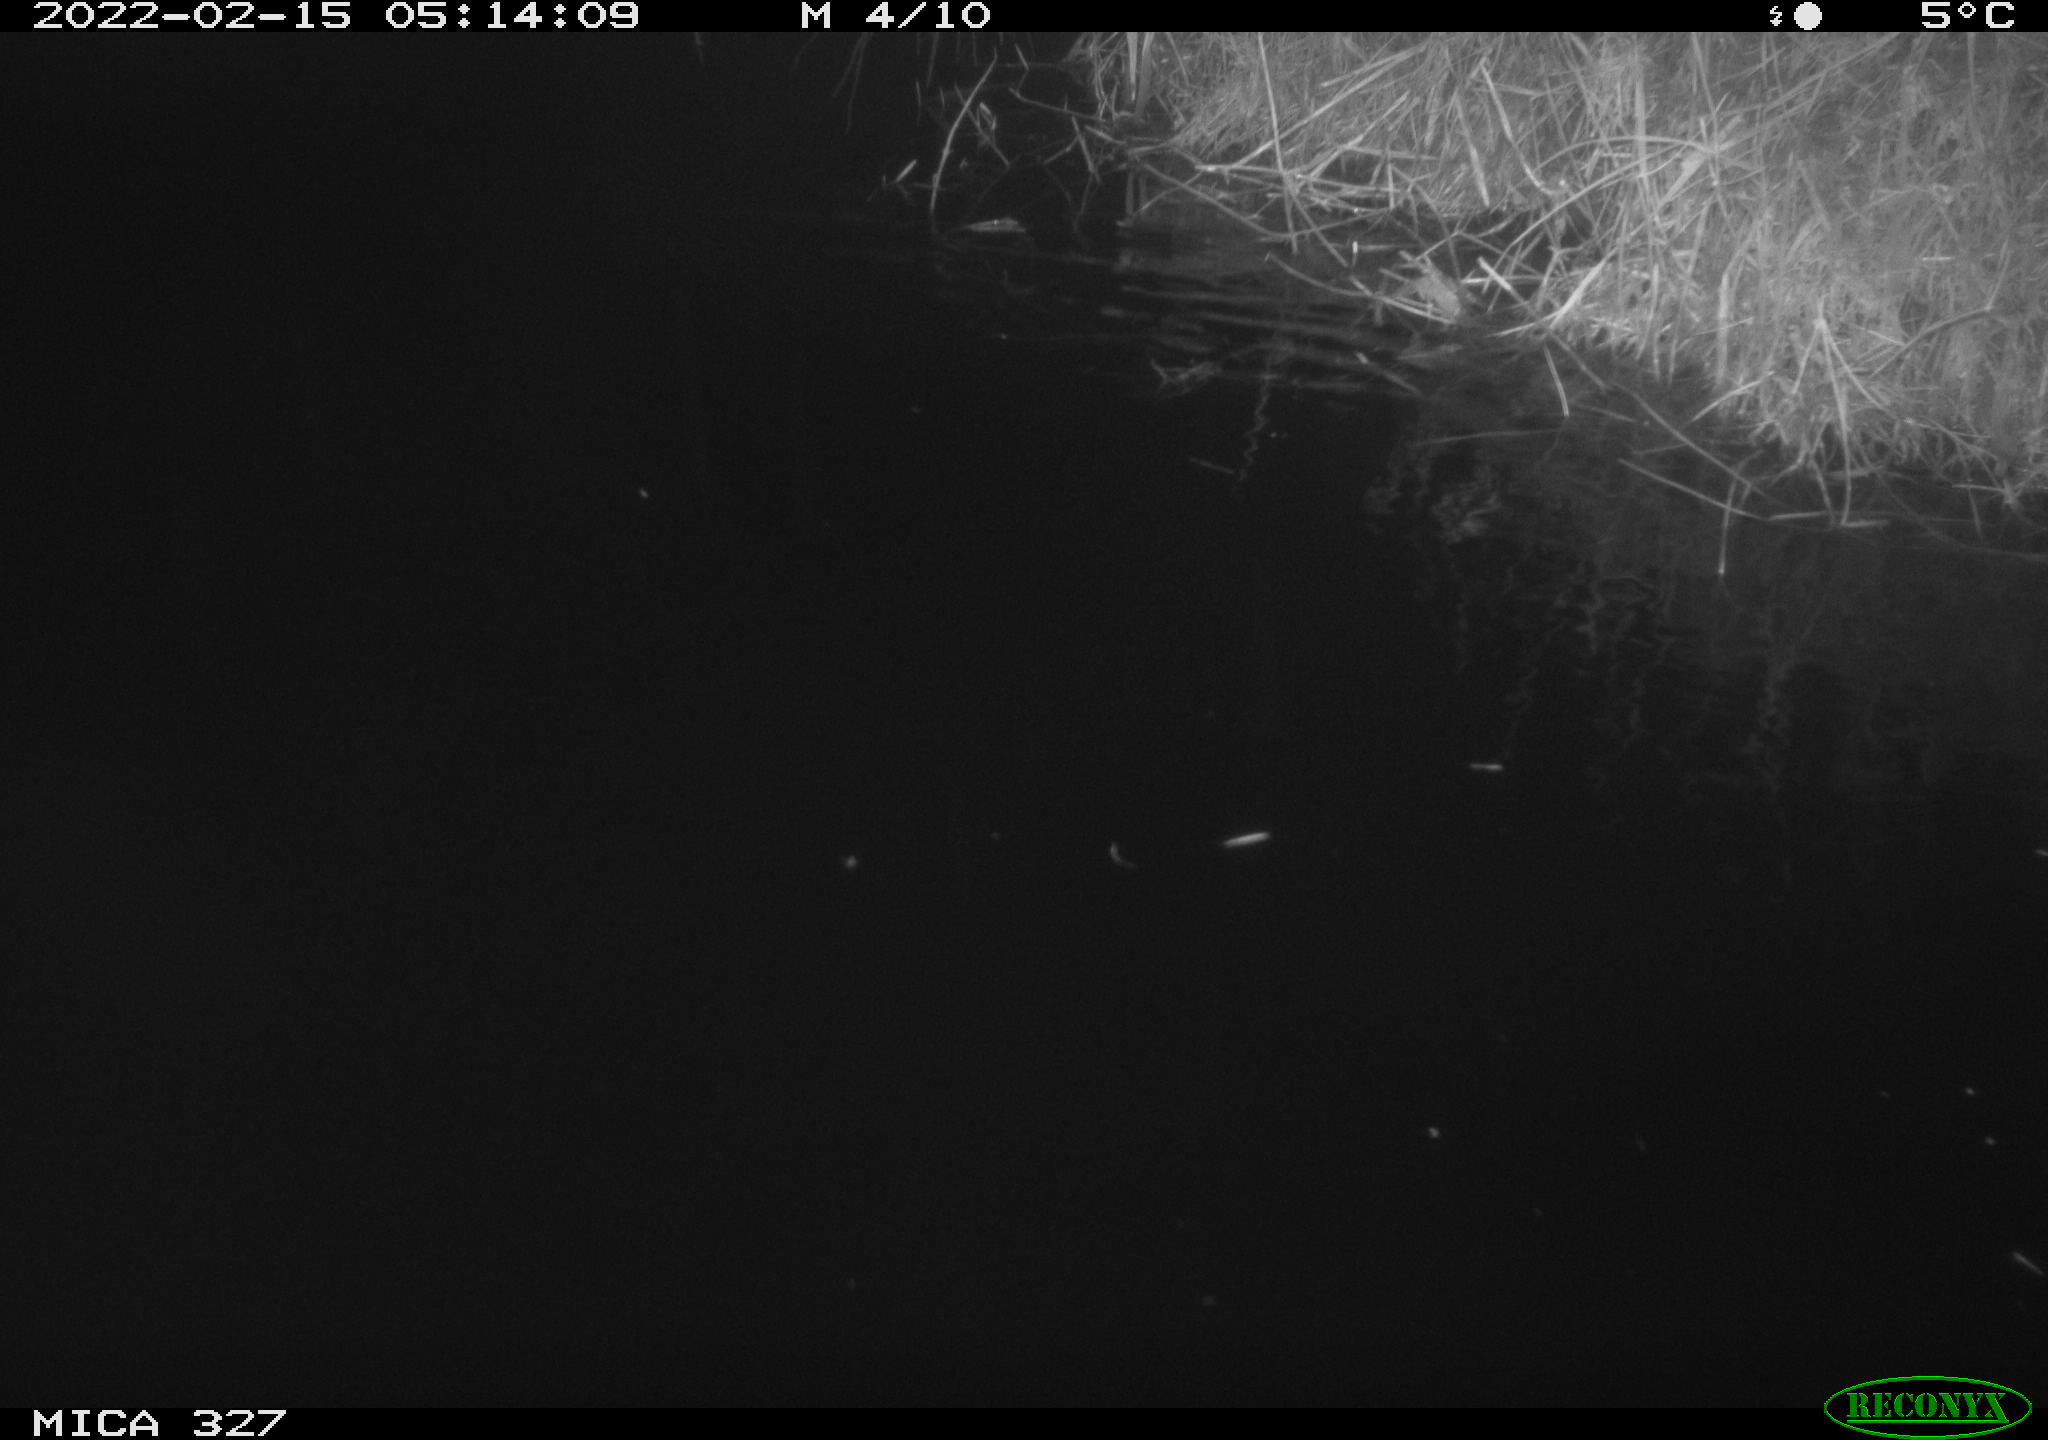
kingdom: Animalia
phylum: Chordata
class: Mammalia
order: Rodentia
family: Cricetidae
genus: Ondatra
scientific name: Ondatra zibethicus
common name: Muskrat
